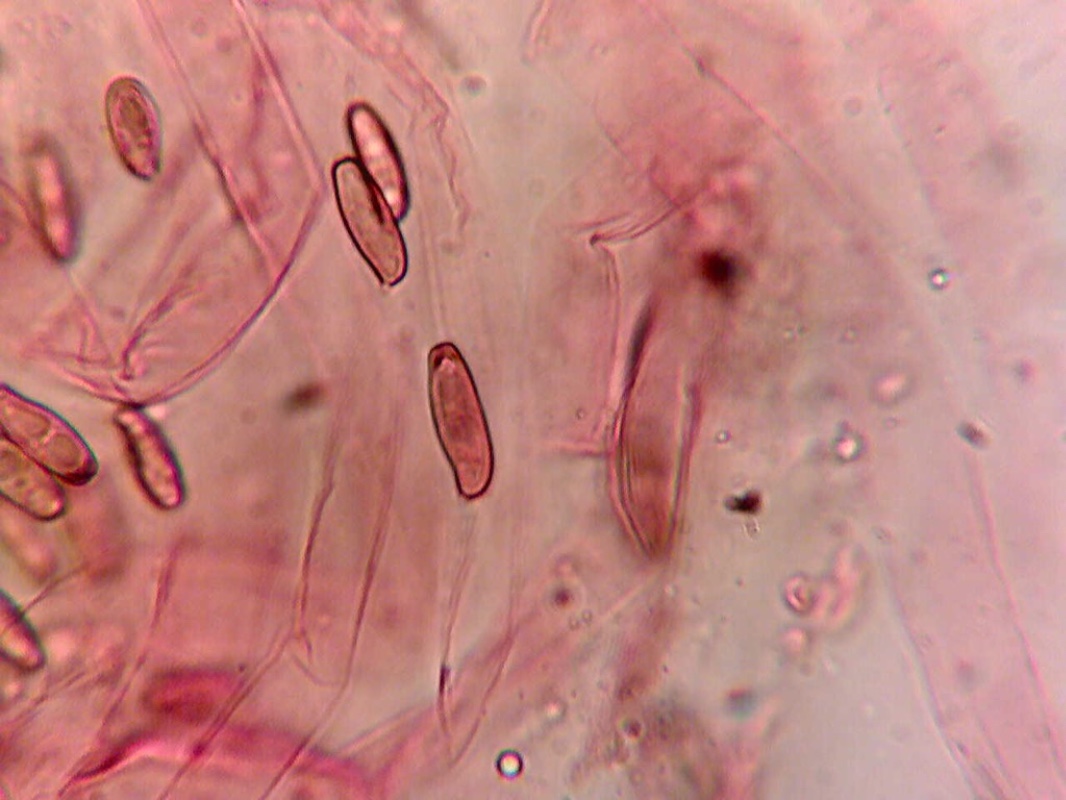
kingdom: Fungi
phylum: Basidiomycota
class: Agaricomycetes
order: Boletales
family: Boletaceae
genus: Xerocomellus
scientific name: Xerocomellus chrysenteron
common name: rødsprukken rørhat
